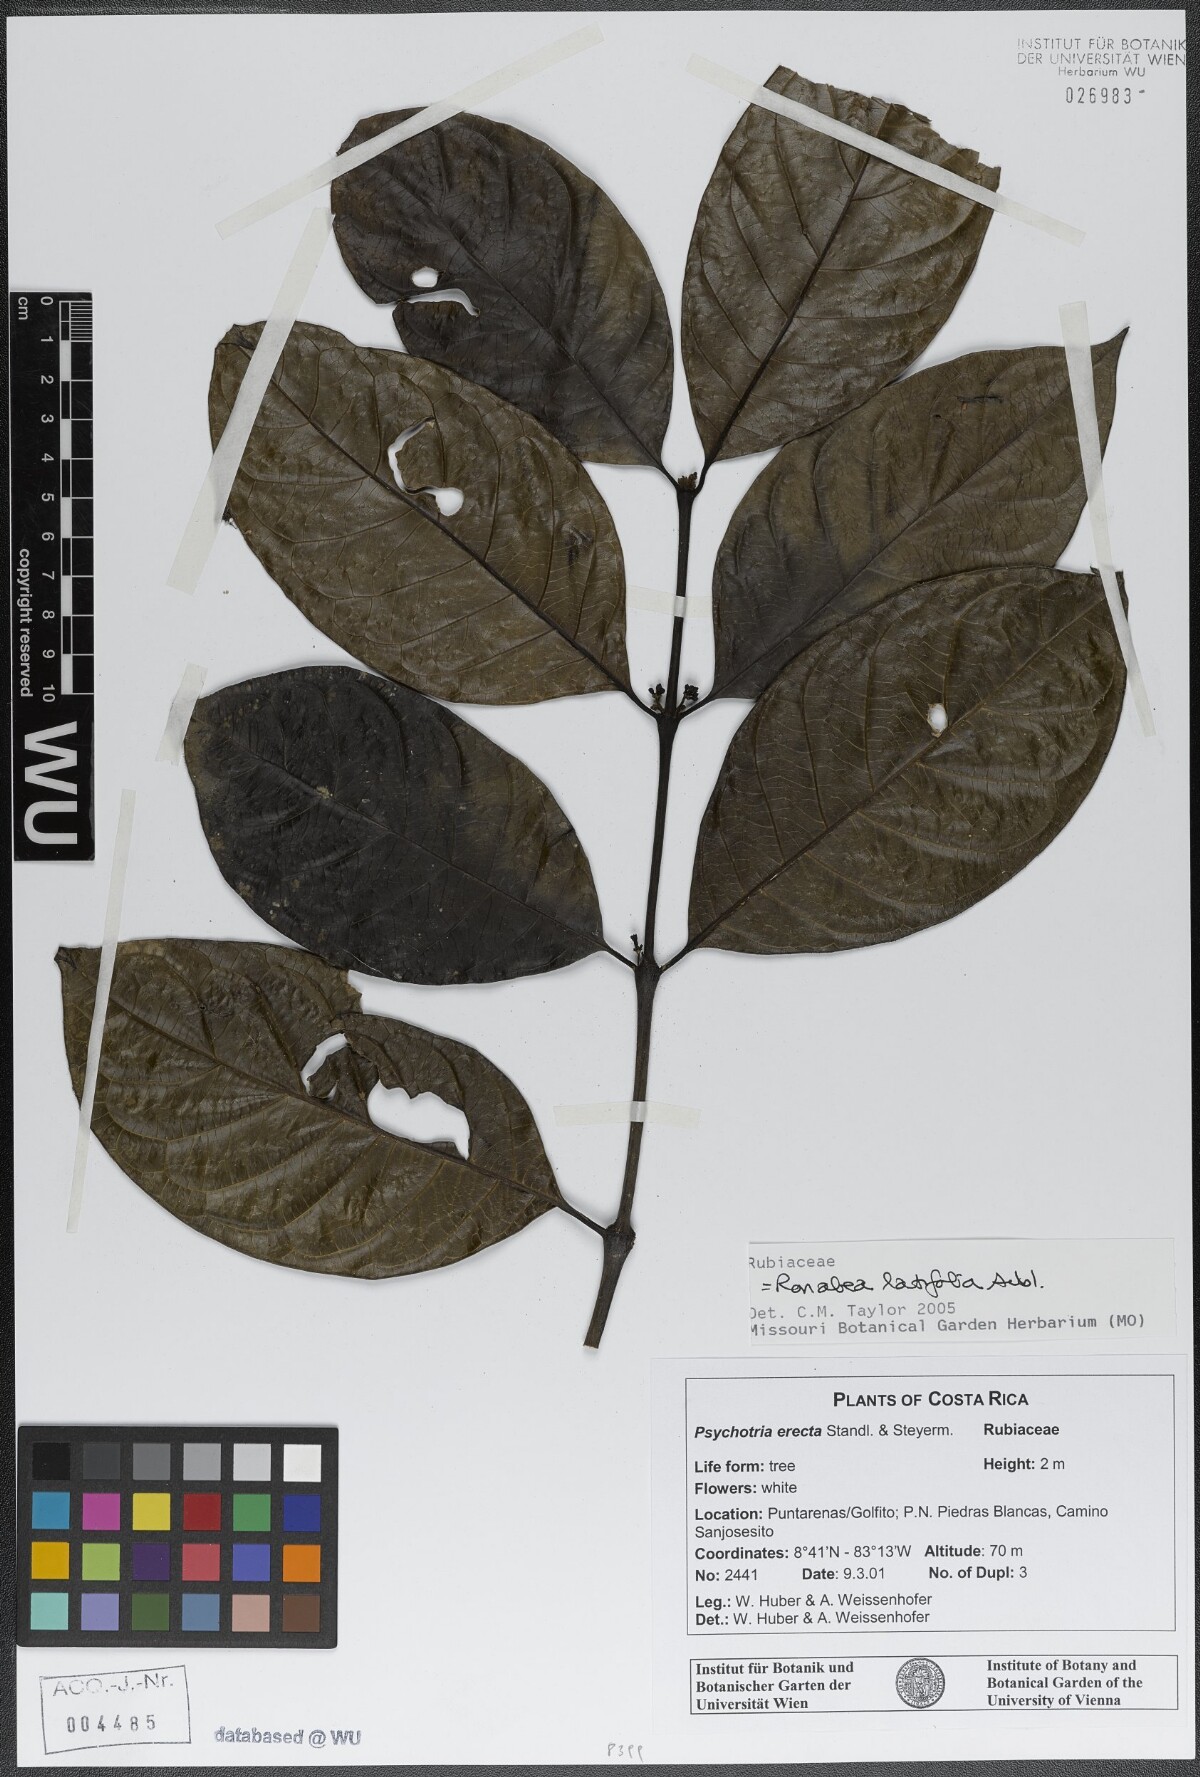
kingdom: Plantae
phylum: Tracheophyta
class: Magnoliopsida
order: Gentianales
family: Rubiaceae
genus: Ronabea
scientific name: Ronabea latifolia
